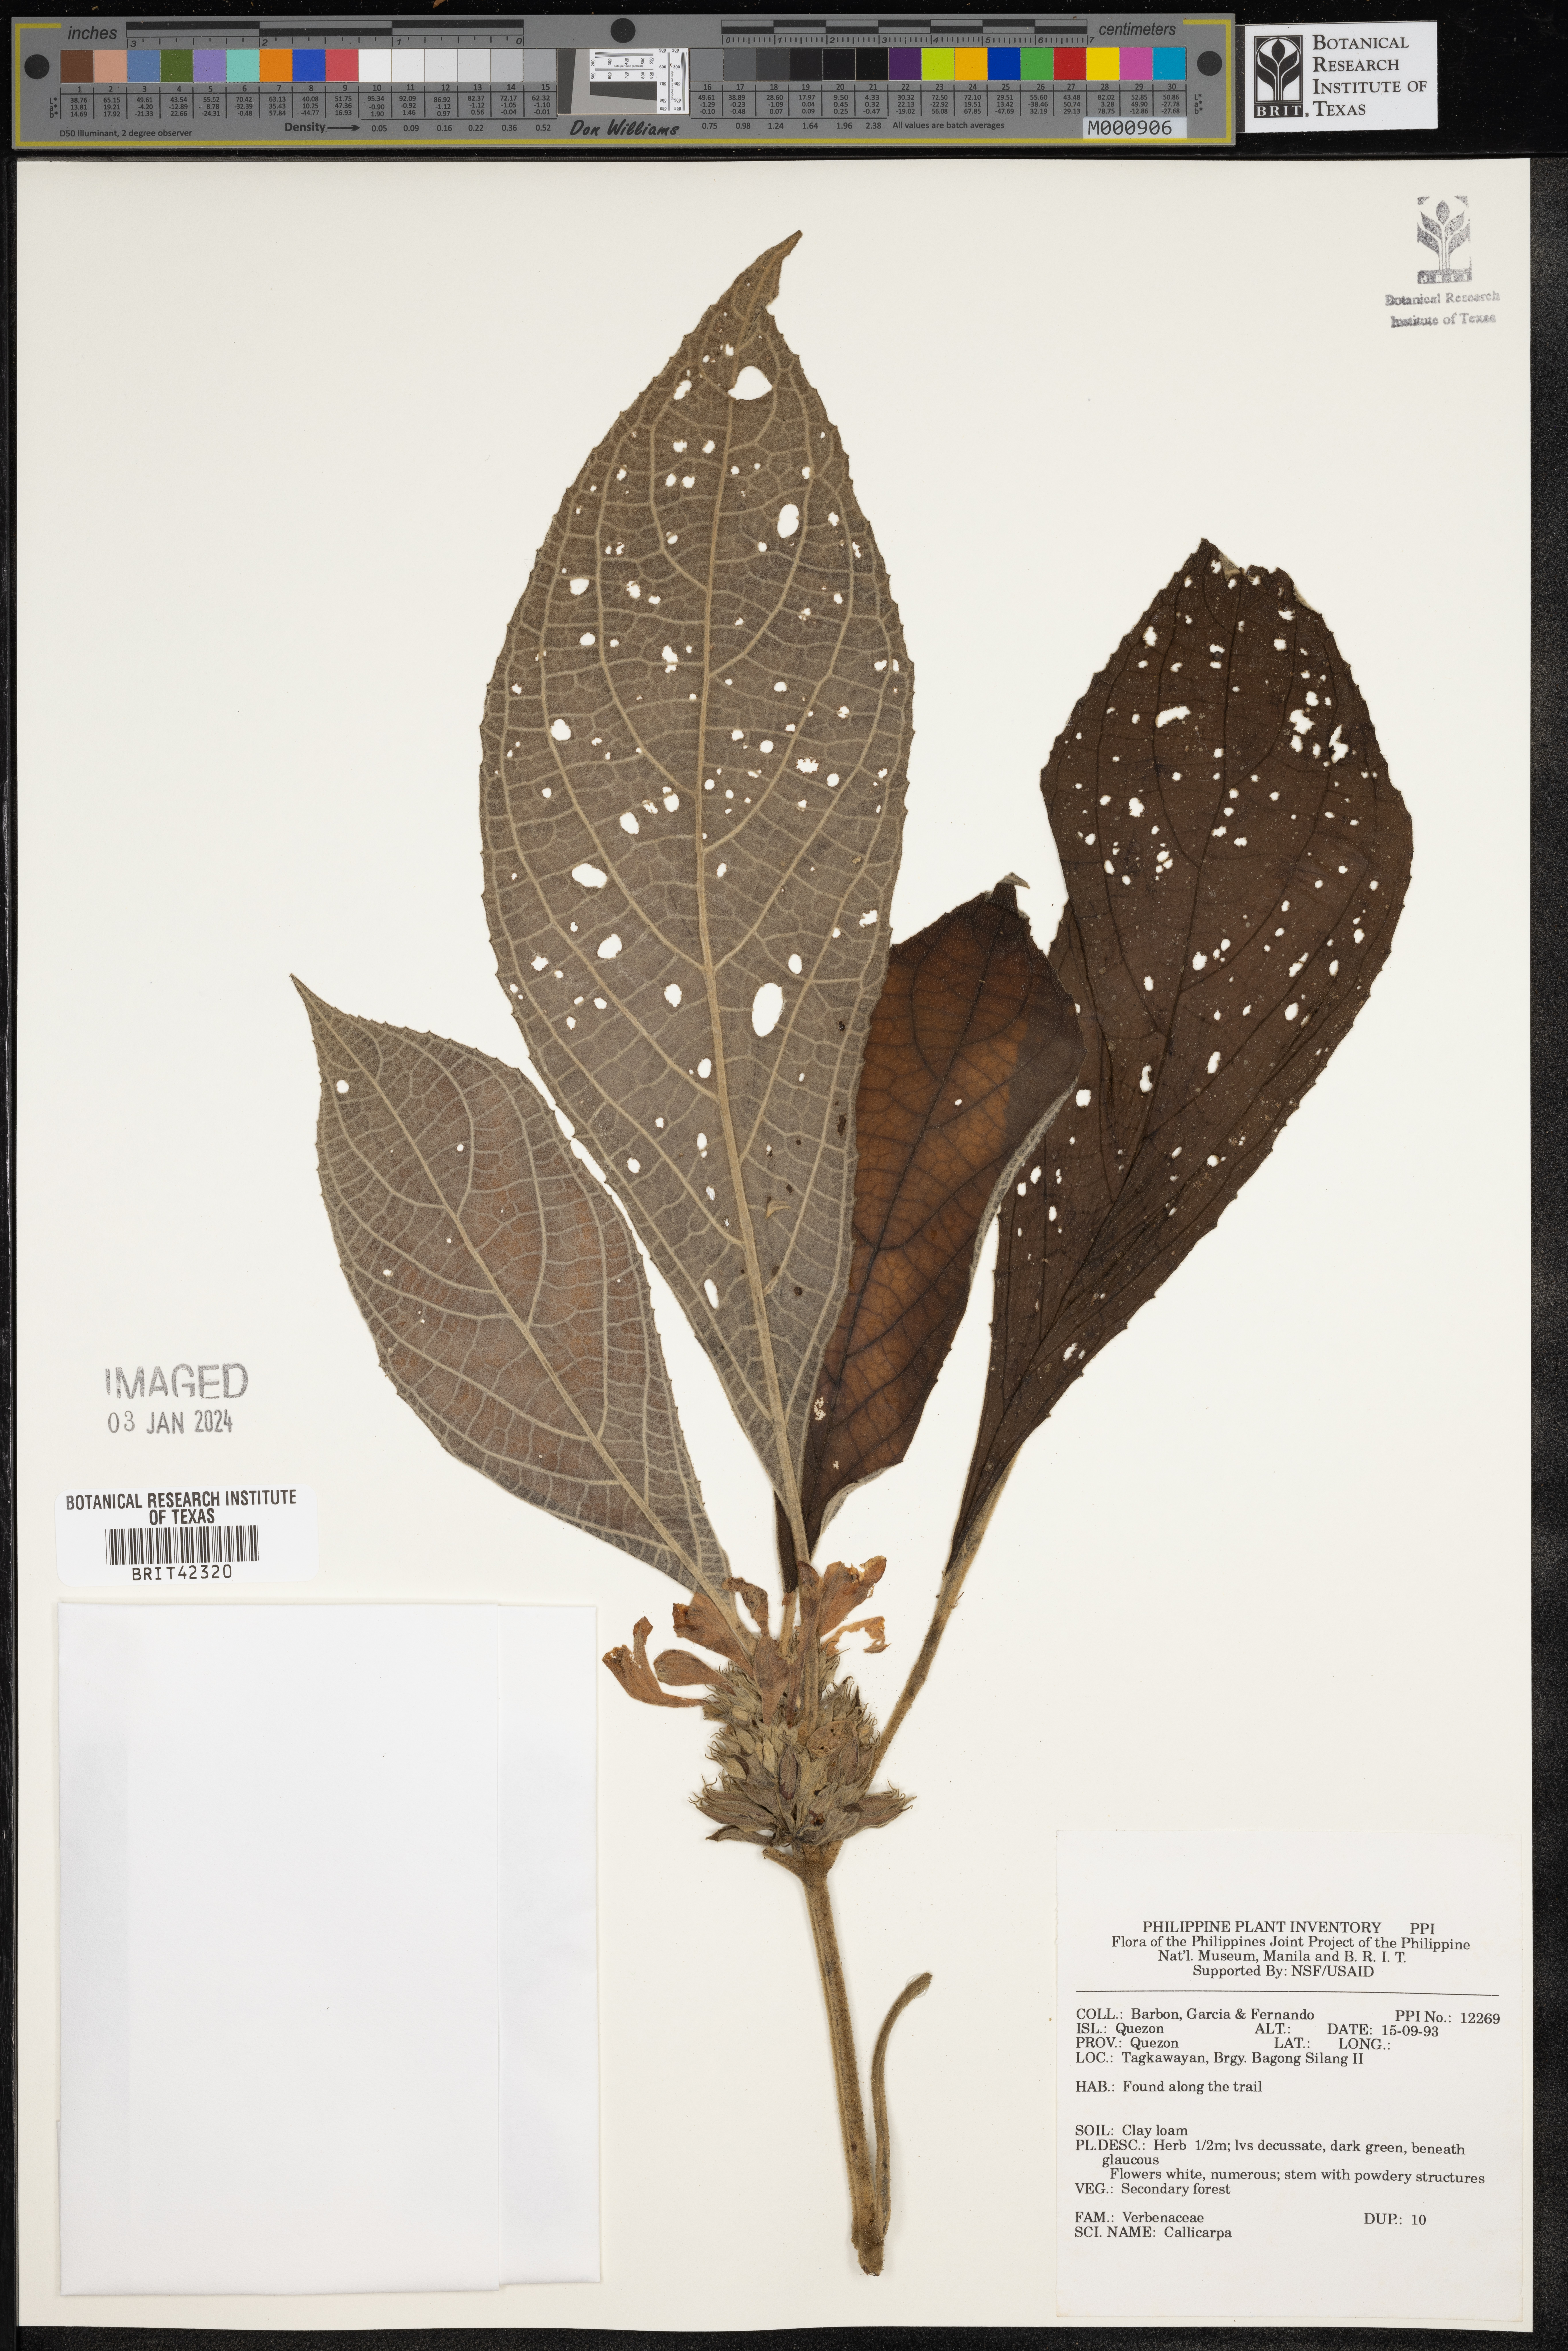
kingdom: Plantae
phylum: Tracheophyta
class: Magnoliopsida
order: Lamiales
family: Lamiaceae
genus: Callicarpa
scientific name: Callicarpa
